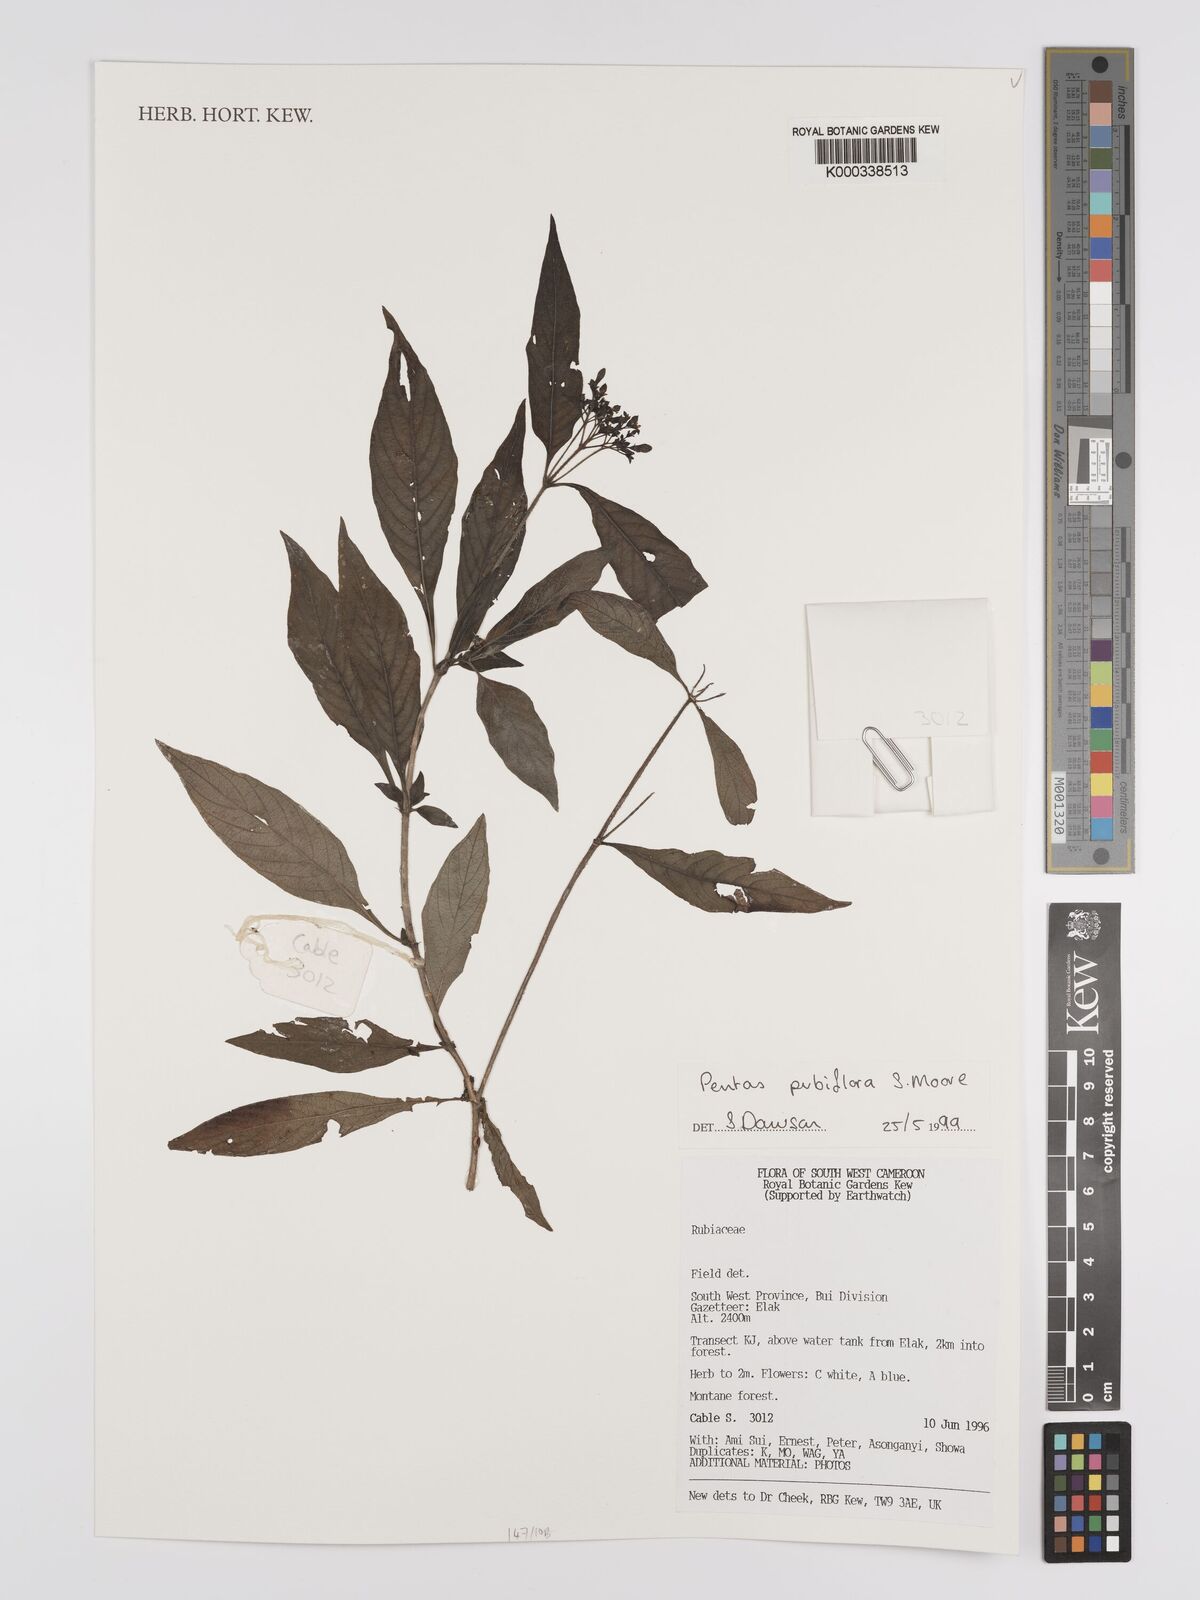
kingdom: Plantae
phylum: Tracheophyta
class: Magnoliopsida
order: Gentianales
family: Rubiaceae
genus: Pentas
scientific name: Pentas pubiflora
